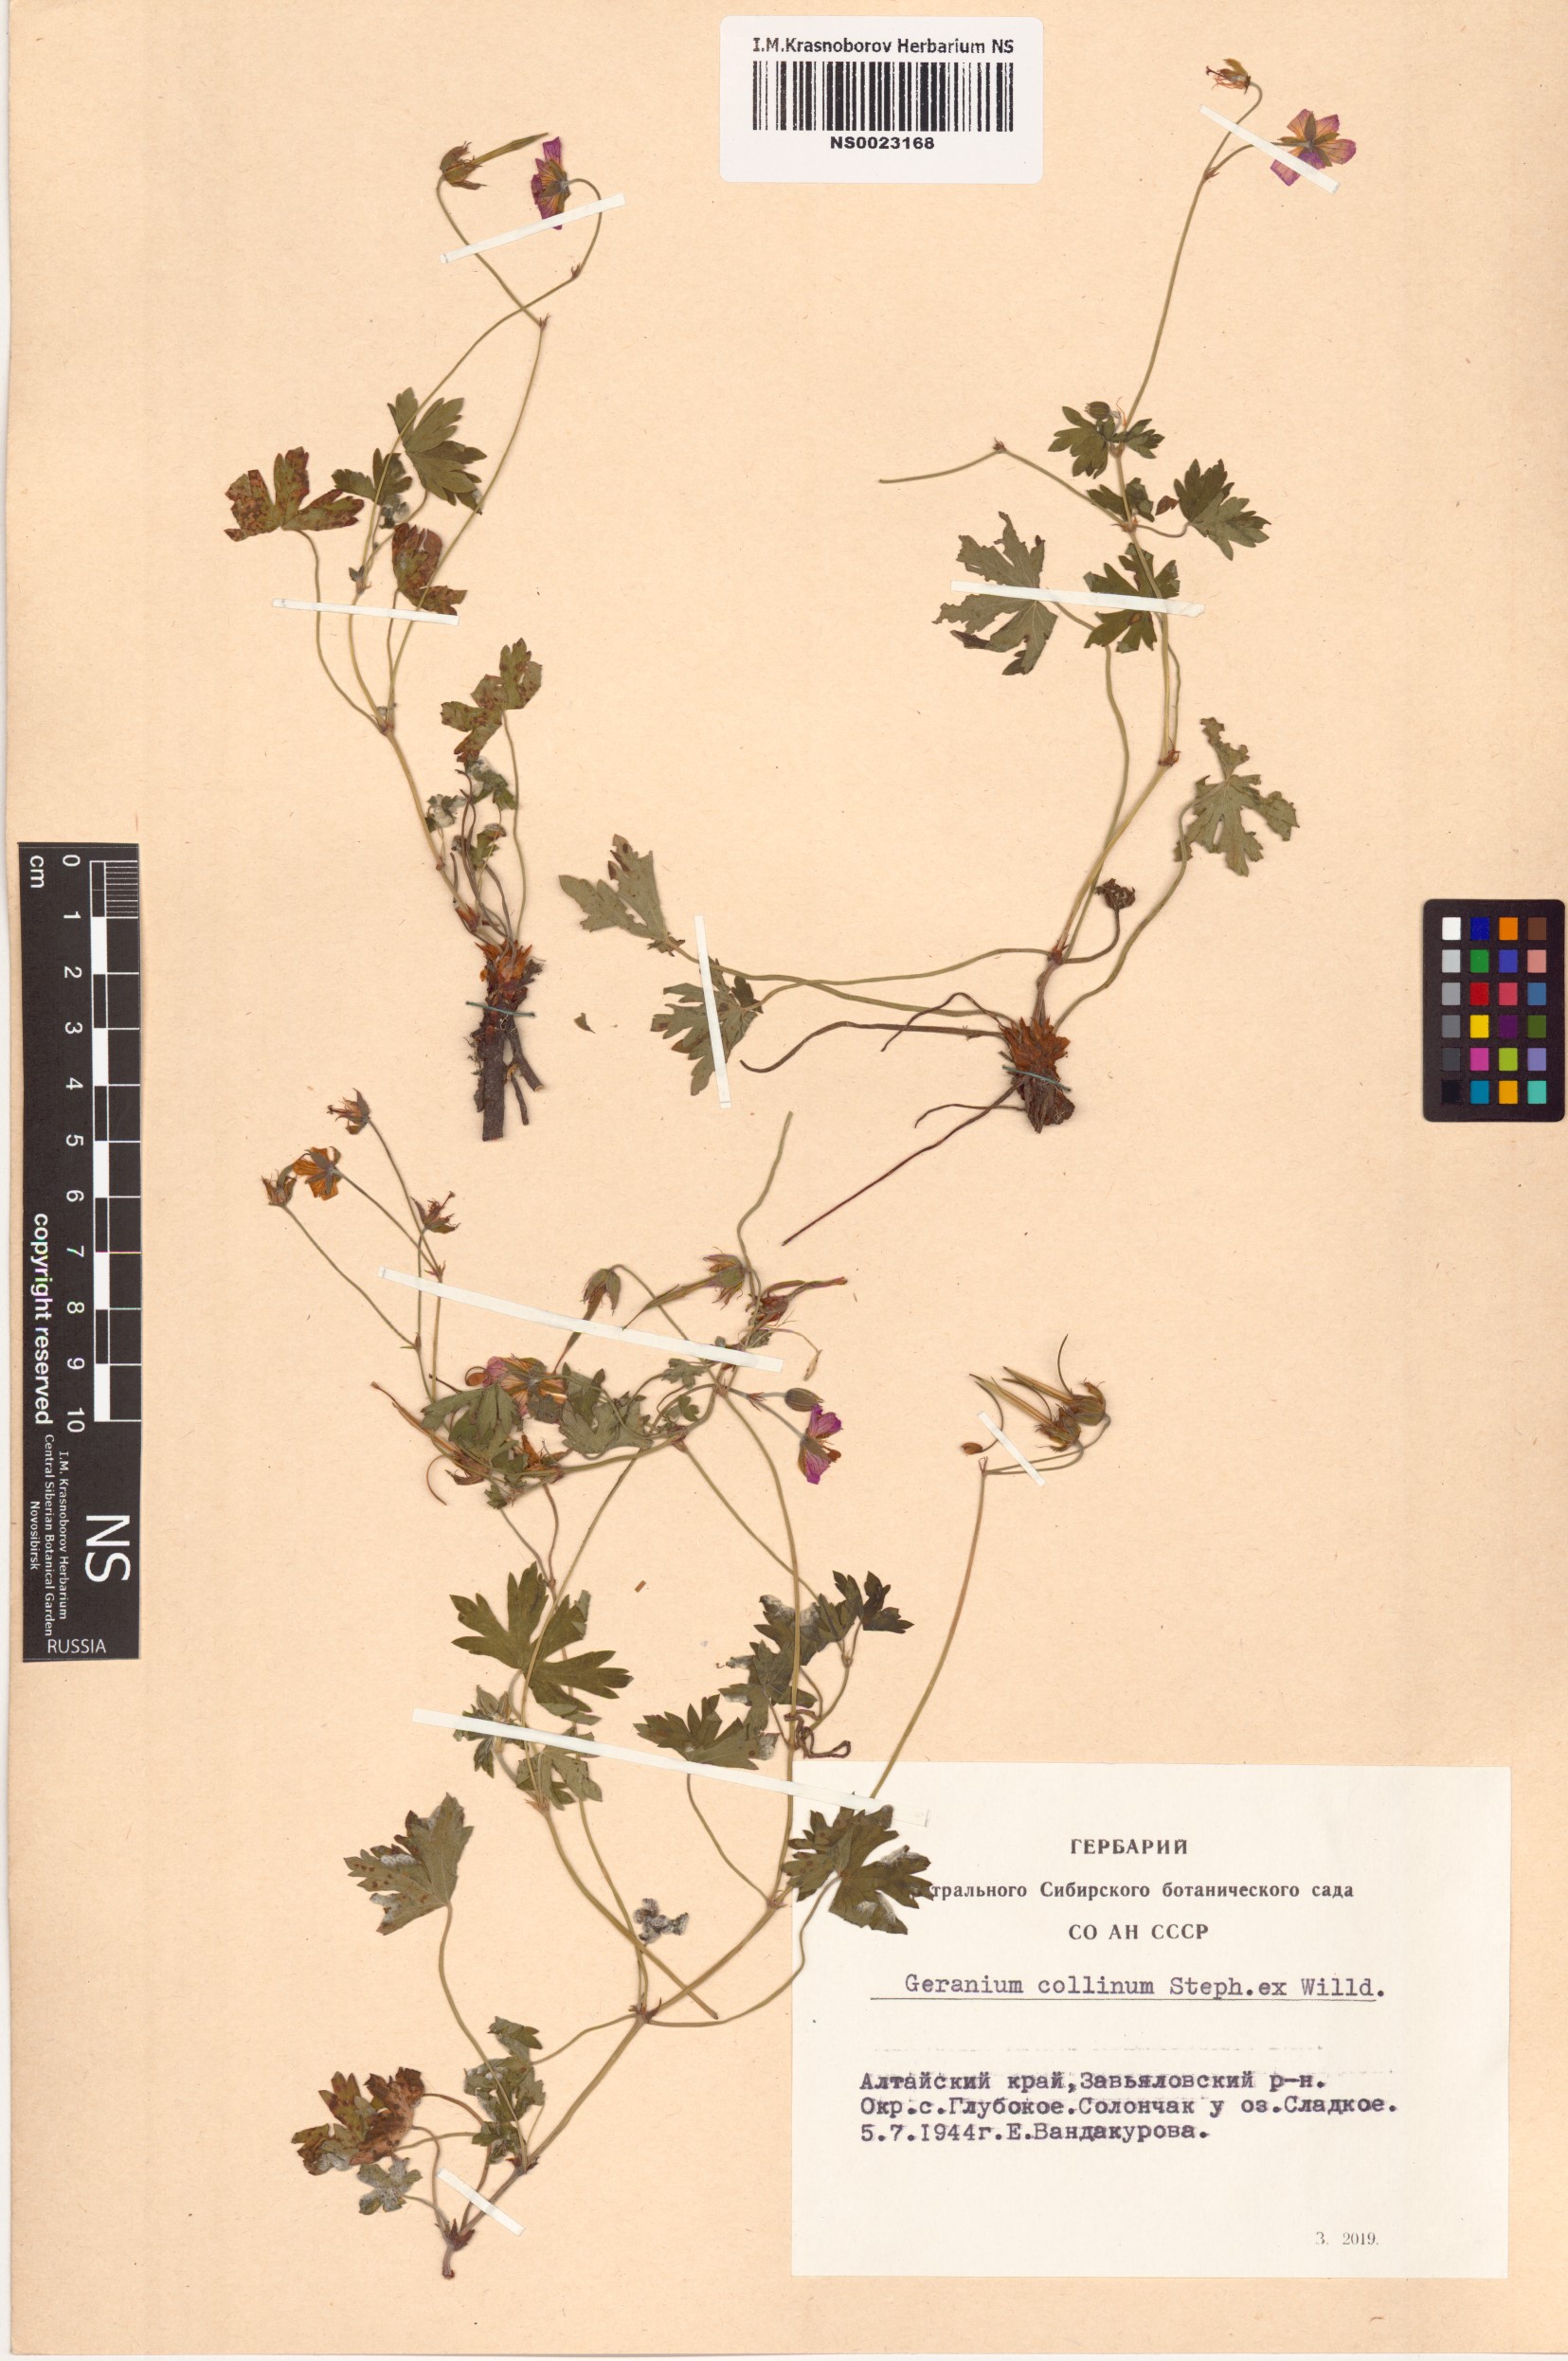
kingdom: Plantae
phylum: Tracheophyta
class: Magnoliopsida
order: Geraniales
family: Geraniaceae
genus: Geranium
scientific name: Geranium collinum
